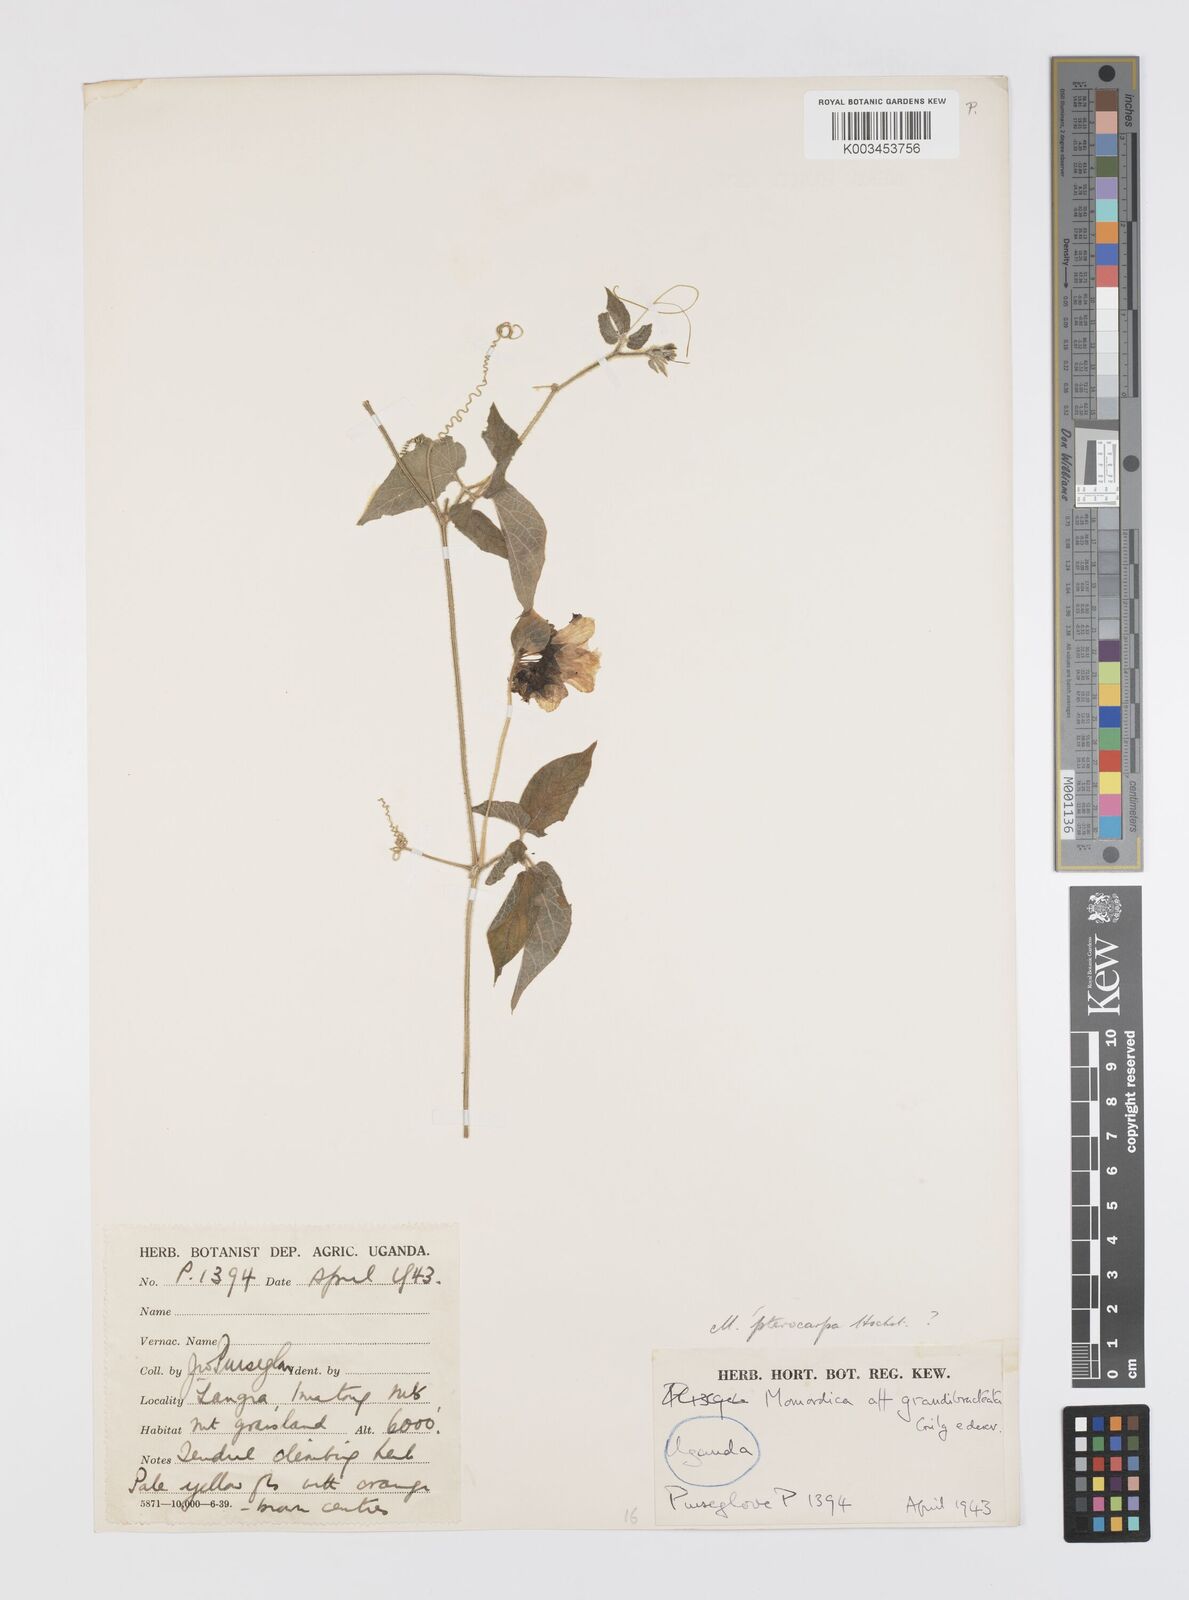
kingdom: Plantae
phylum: Tracheophyta
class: Magnoliopsida
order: Cucurbitales
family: Cucurbitaceae
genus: Momordica
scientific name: Momordica pterocarpa
